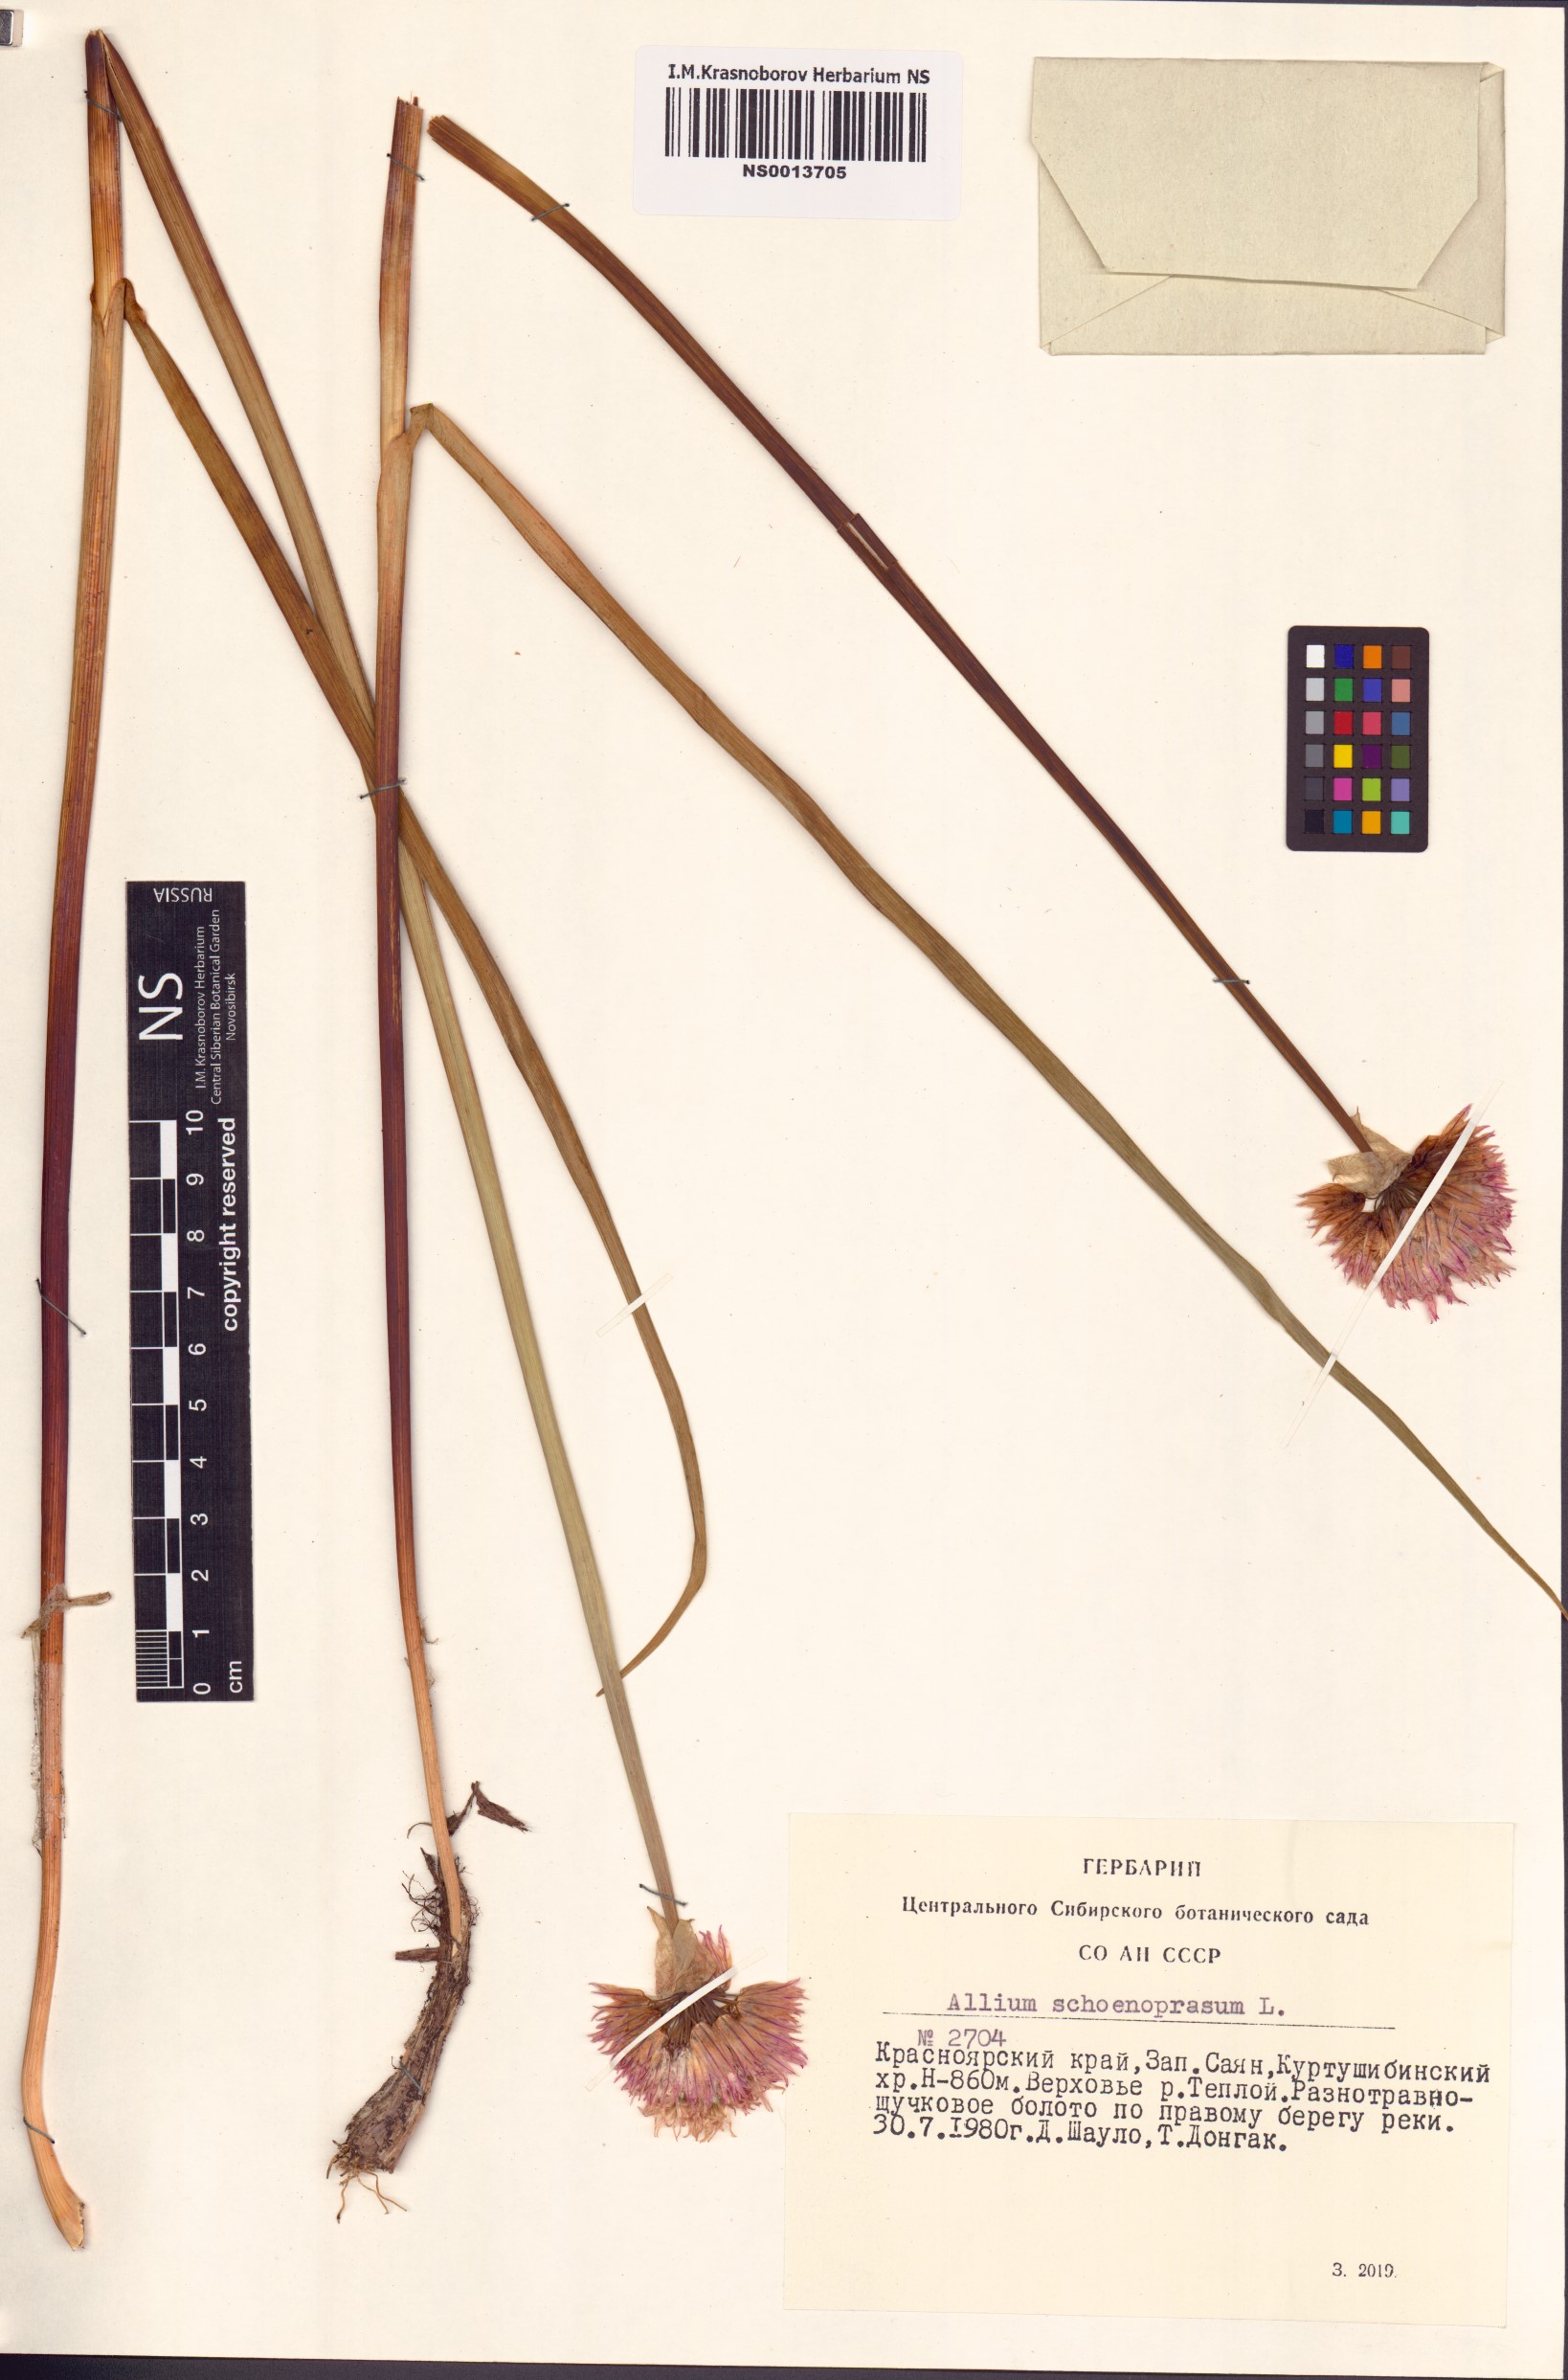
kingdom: Plantae
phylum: Tracheophyta
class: Liliopsida
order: Asparagales
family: Amaryllidaceae
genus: Allium
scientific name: Allium schoenoprasum
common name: Chives
